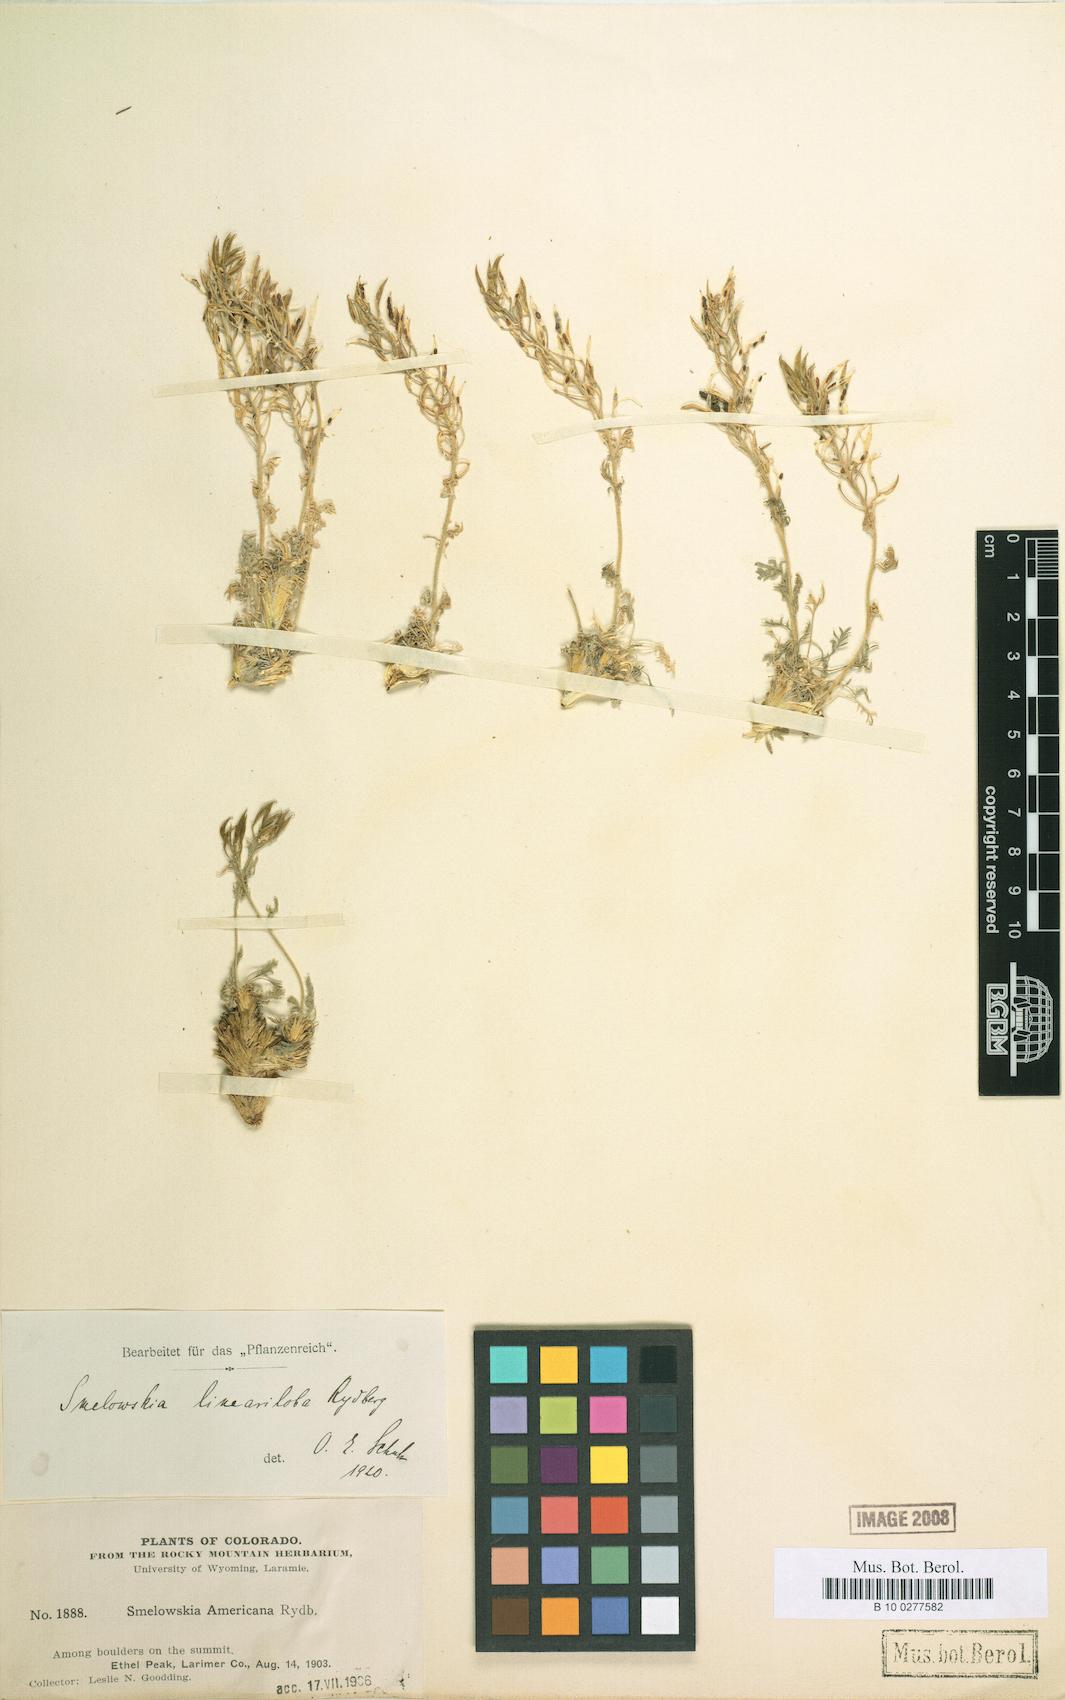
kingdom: Plantae
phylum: Tracheophyta
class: Magnoliopsida
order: Brassicales
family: Brassicaceae
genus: Smelowskia
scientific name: Smelowskia americana
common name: American false candytuft
